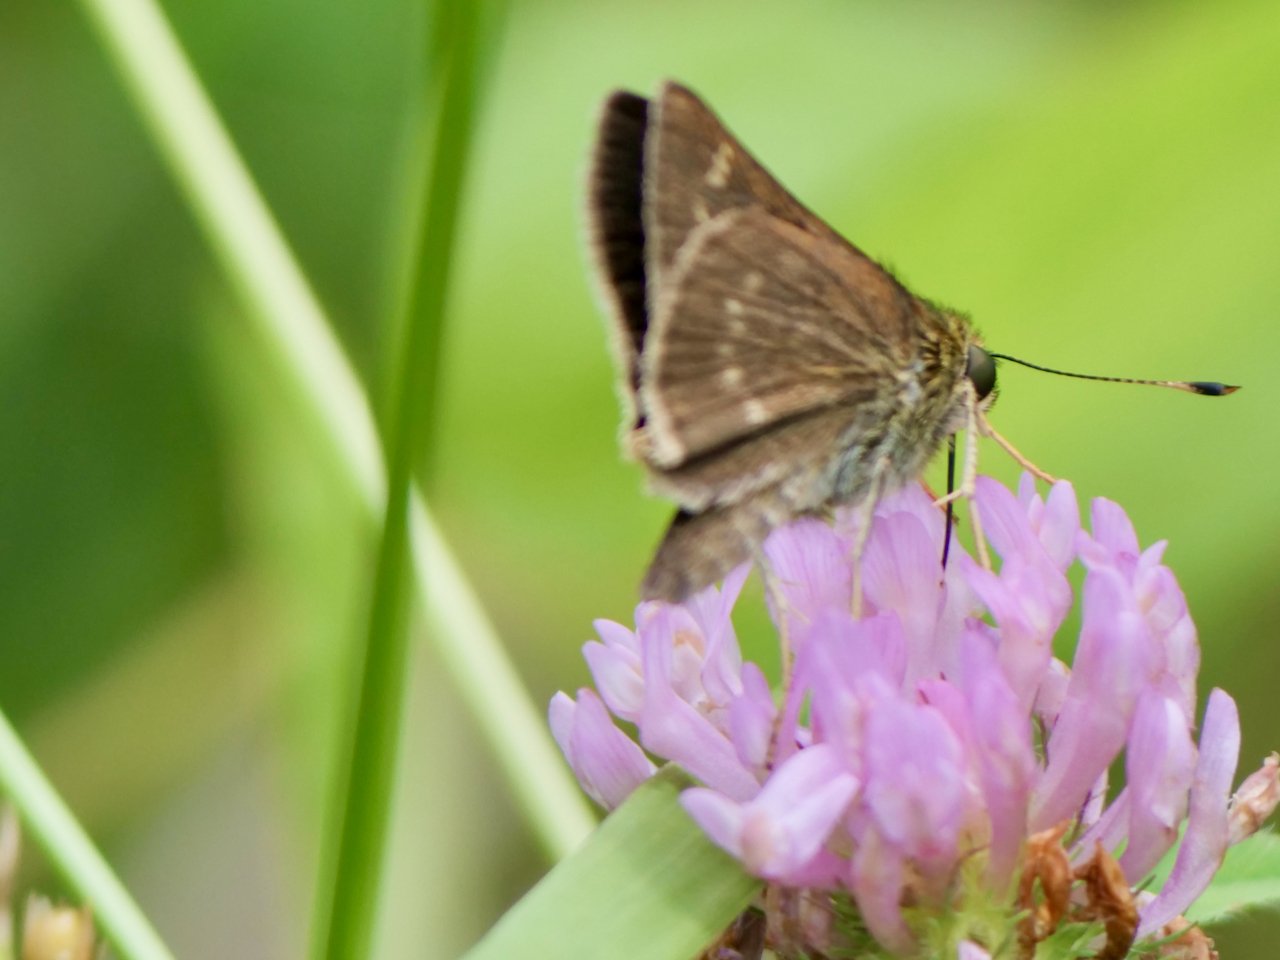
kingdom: Animalia
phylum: Arthropoda
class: Insecta
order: Lepidoptera
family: Hesperiidae
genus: Vernia
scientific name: Vernia verna
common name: Little Glassywing
